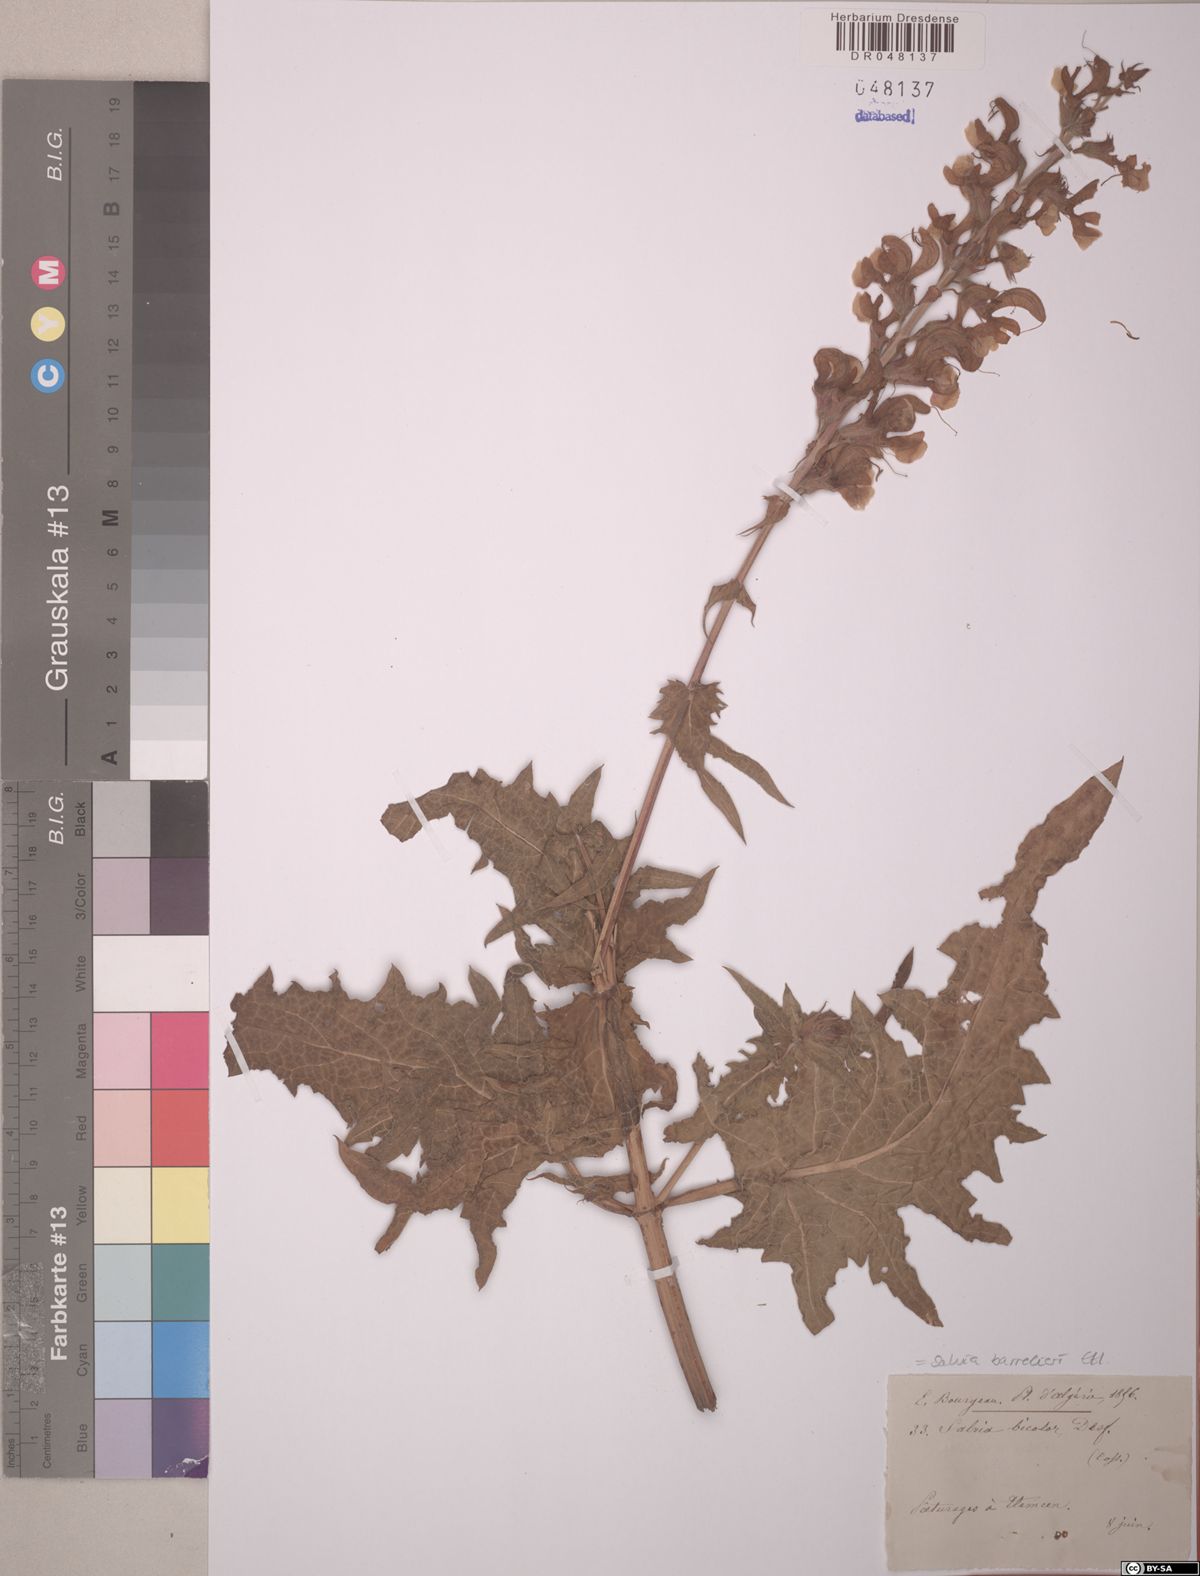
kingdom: Plantae
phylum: Tracheophyta
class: Magnoliopsida
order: Lamiales
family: Lamiaceae
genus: Salvia
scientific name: Salvia barrelieri
